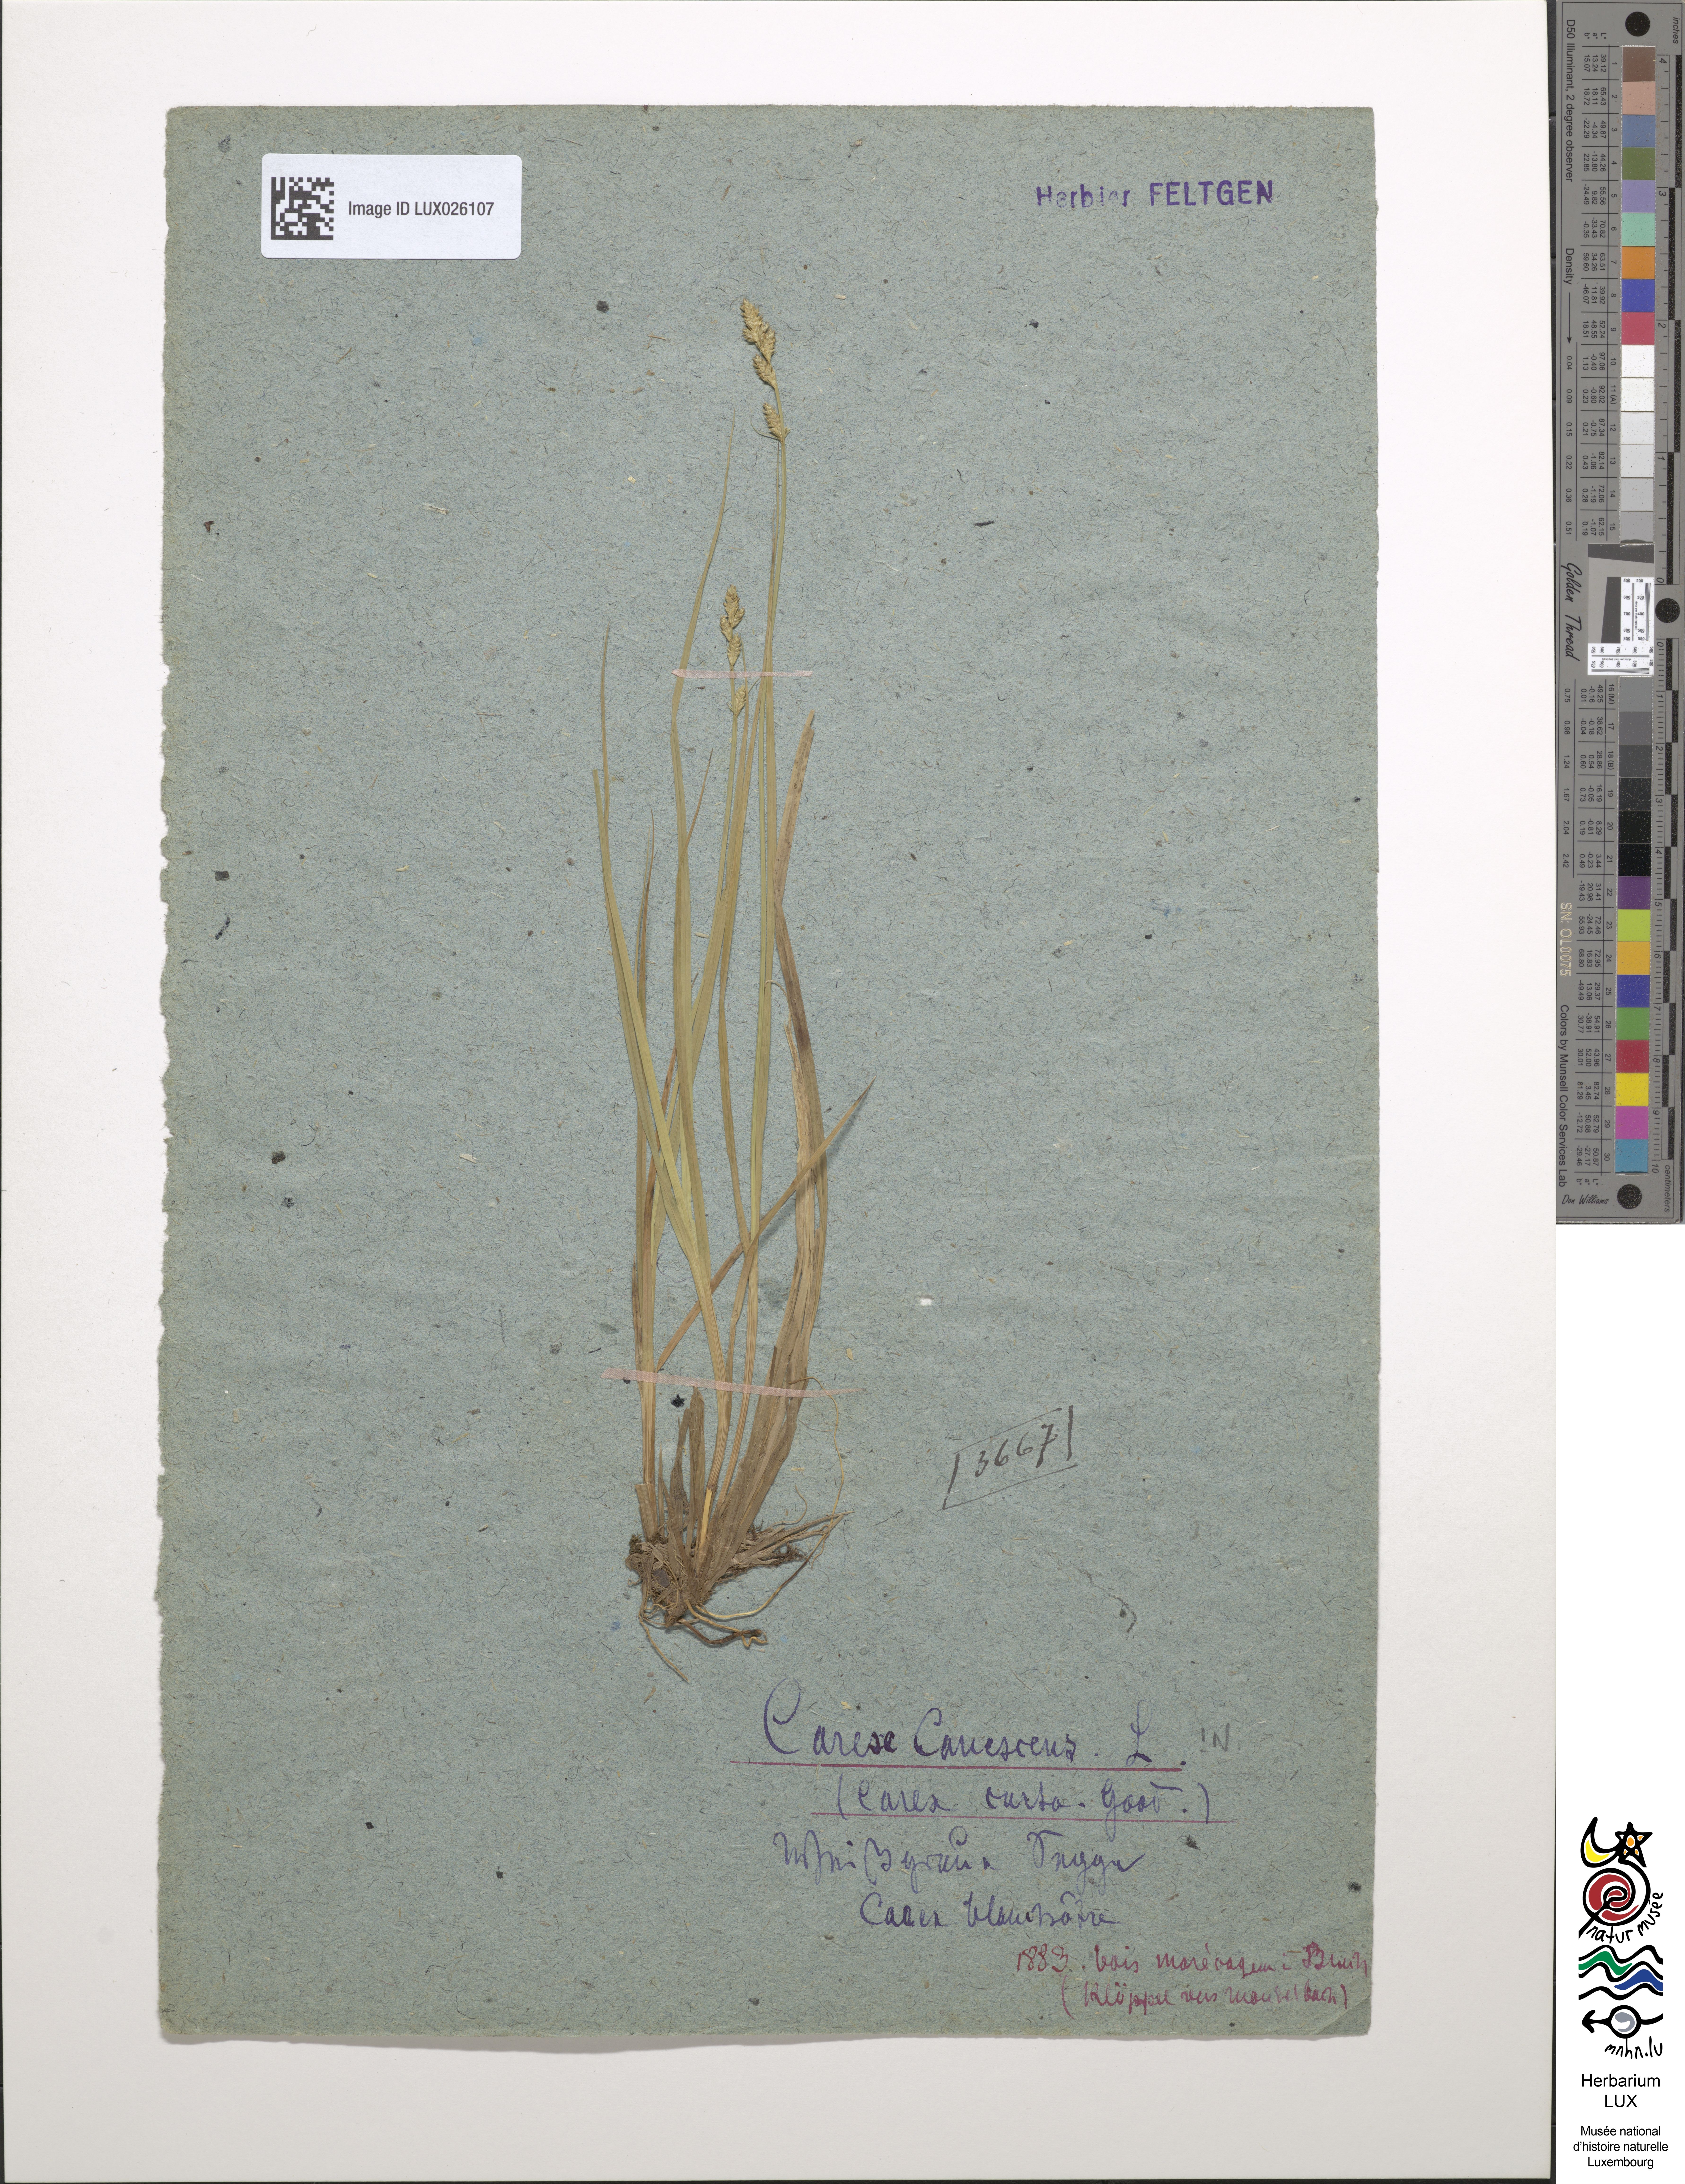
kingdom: Plantae
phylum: Tracheophyta
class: Liliopsida
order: Poales
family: Cyperaceae
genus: Carex
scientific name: Carex canescens
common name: White sedge
